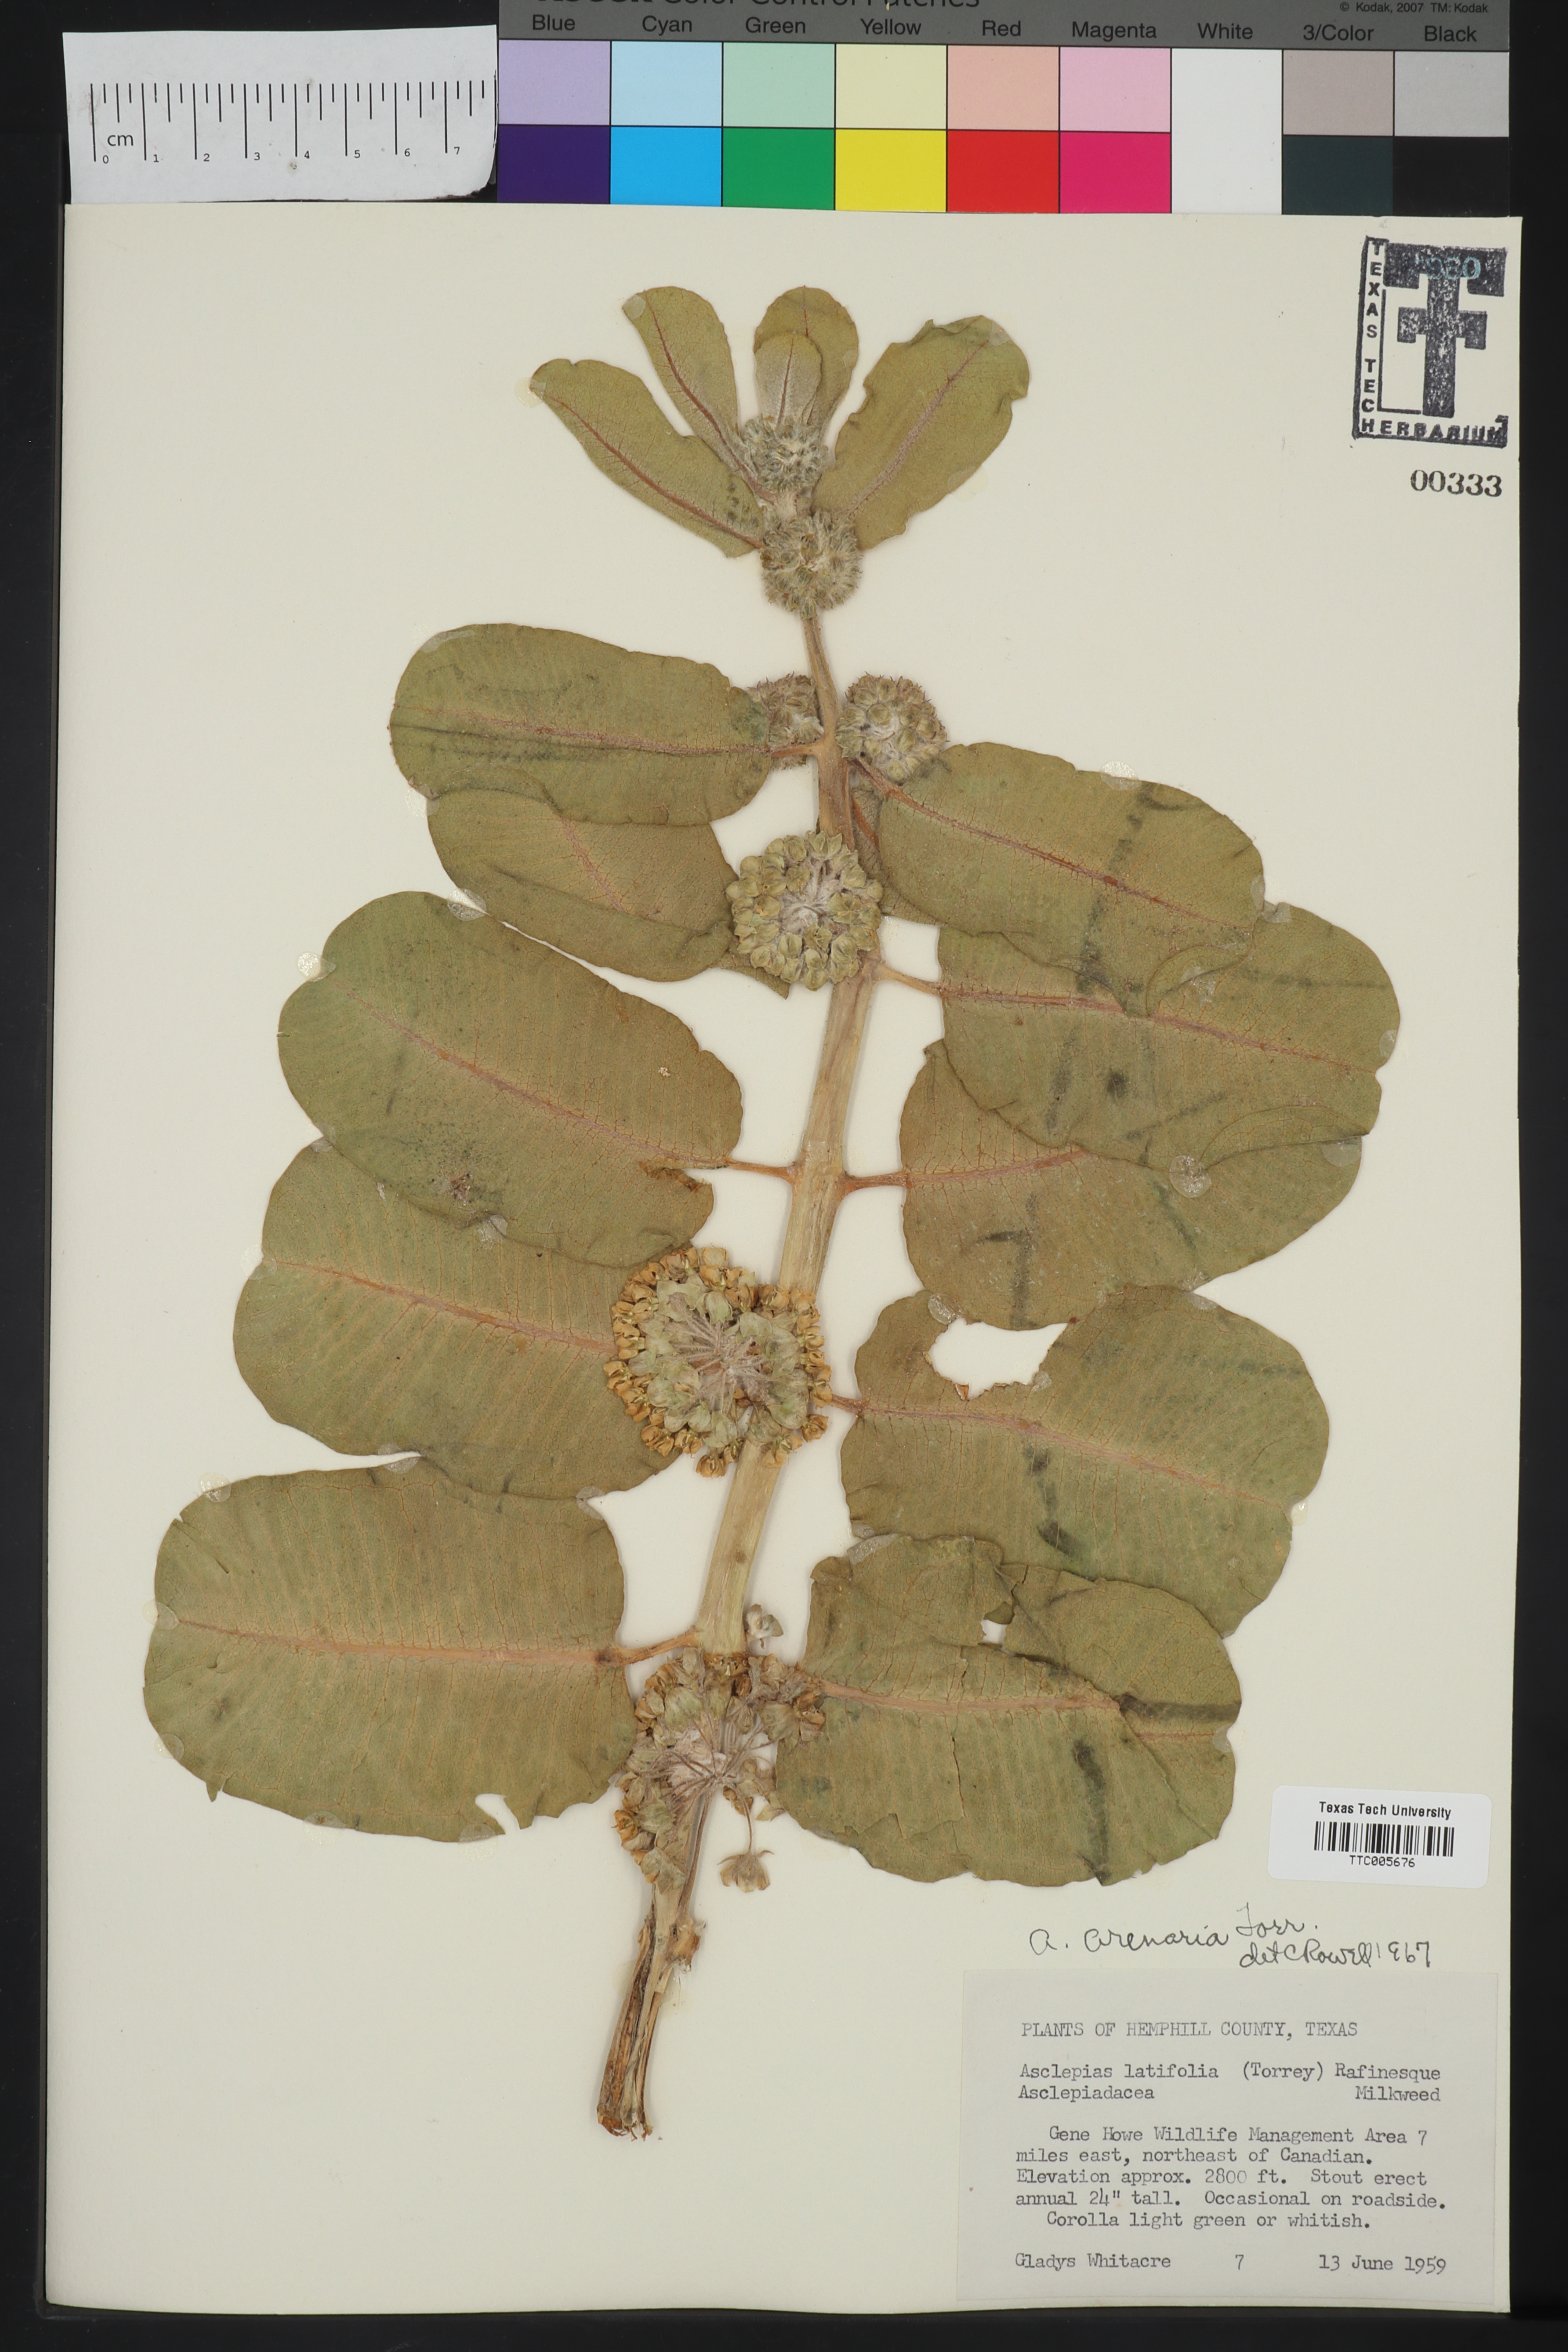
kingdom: Plantae
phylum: Tracheophyta
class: Magnoliopsida
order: Gentianales
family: Apocynaceae
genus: Asclepias
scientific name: Asclepias arenaria
